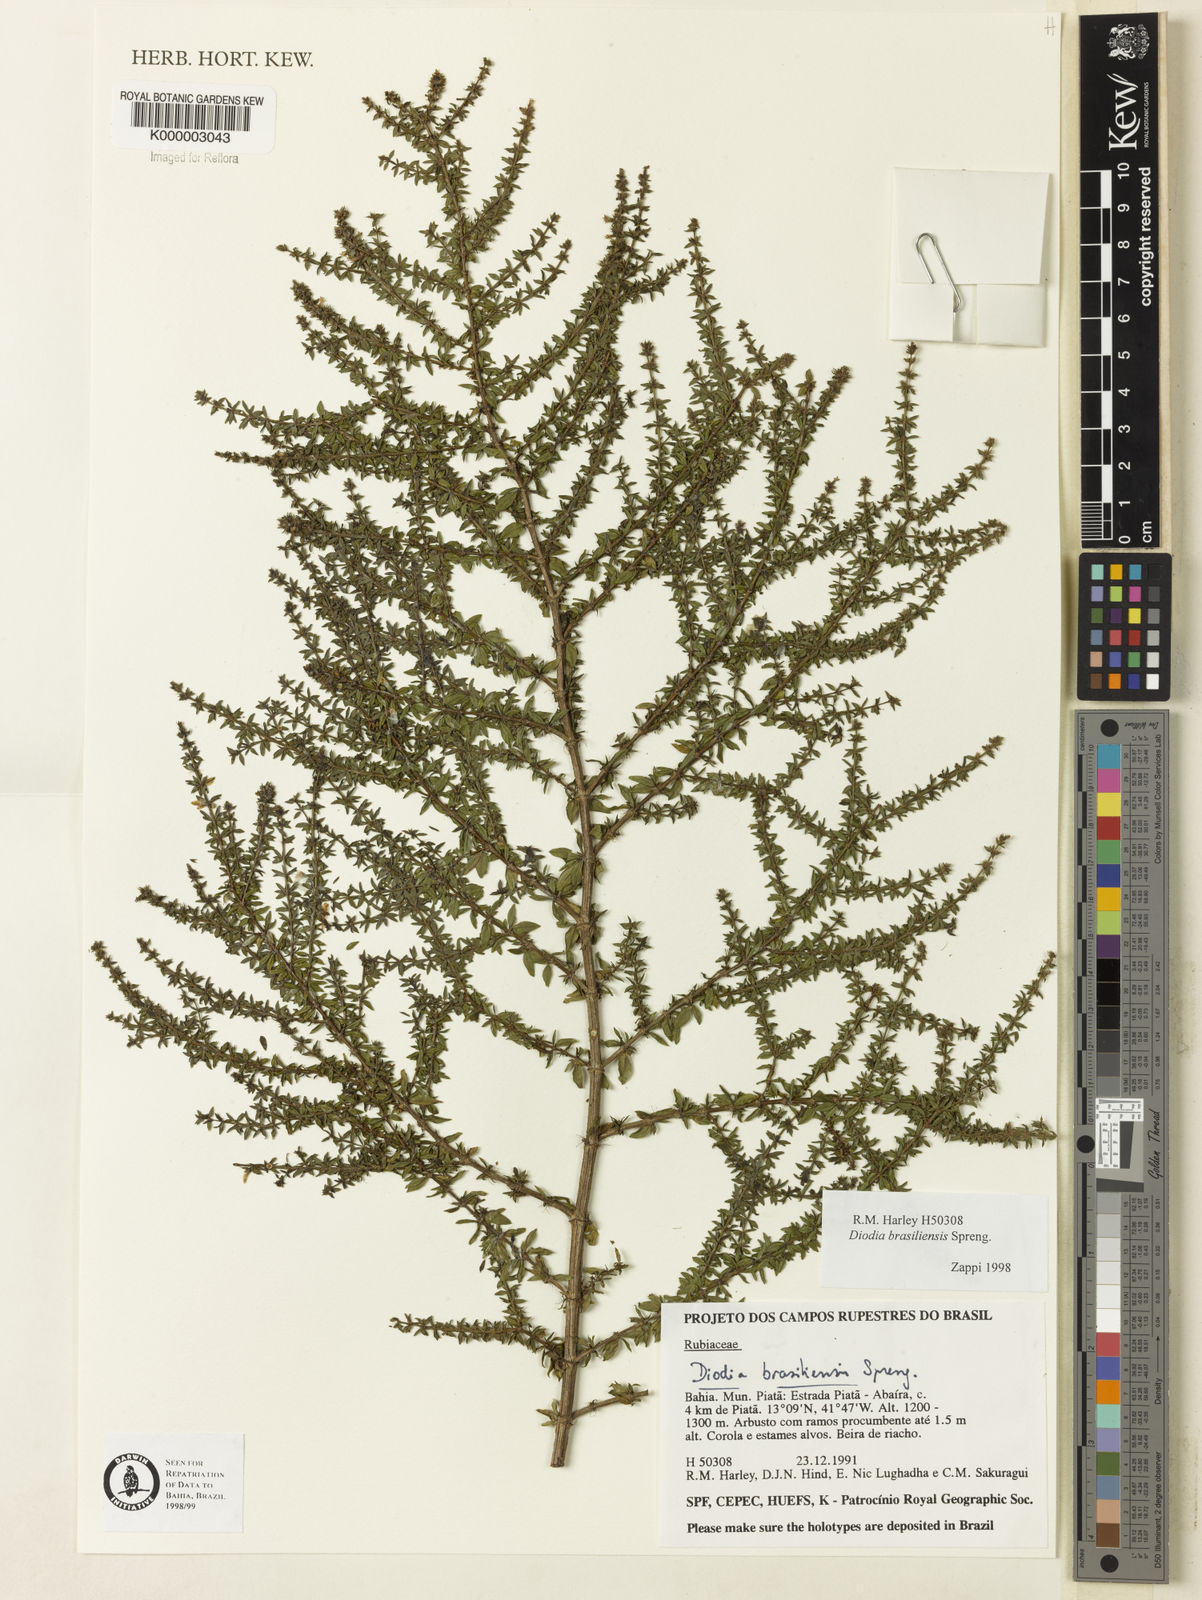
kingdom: Plantae
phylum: Tracheophyta
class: Magnoliopsida
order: Gentianales
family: Rubiaceae
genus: Galianthe
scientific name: Galianthe brasiliensis
